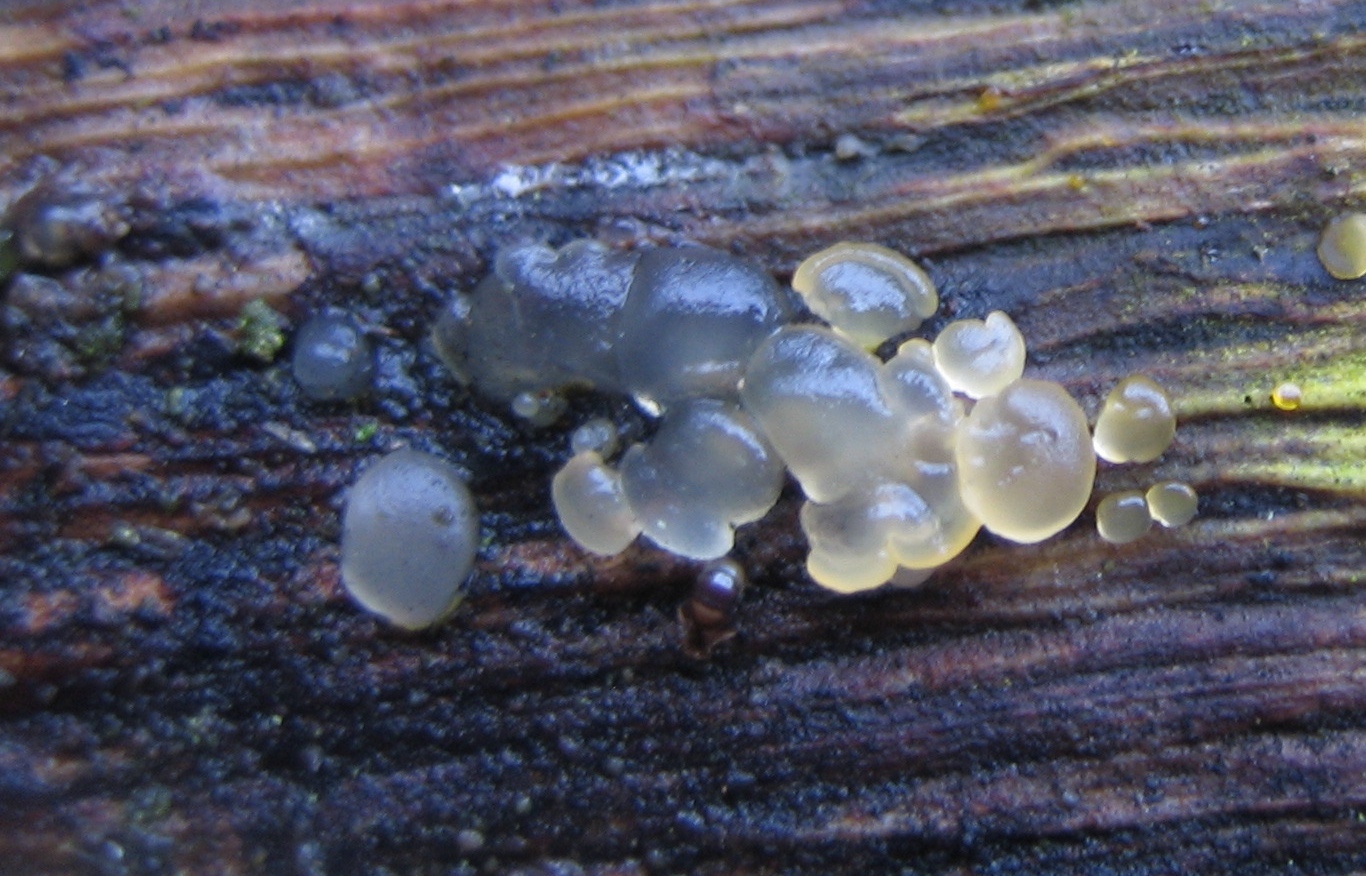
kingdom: Fungi
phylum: Basidiomycota
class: Dacrymycetes
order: Dacrymycetales
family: Dacrymycetaceae
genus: Dacrymyces
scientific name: Dacrymyces
